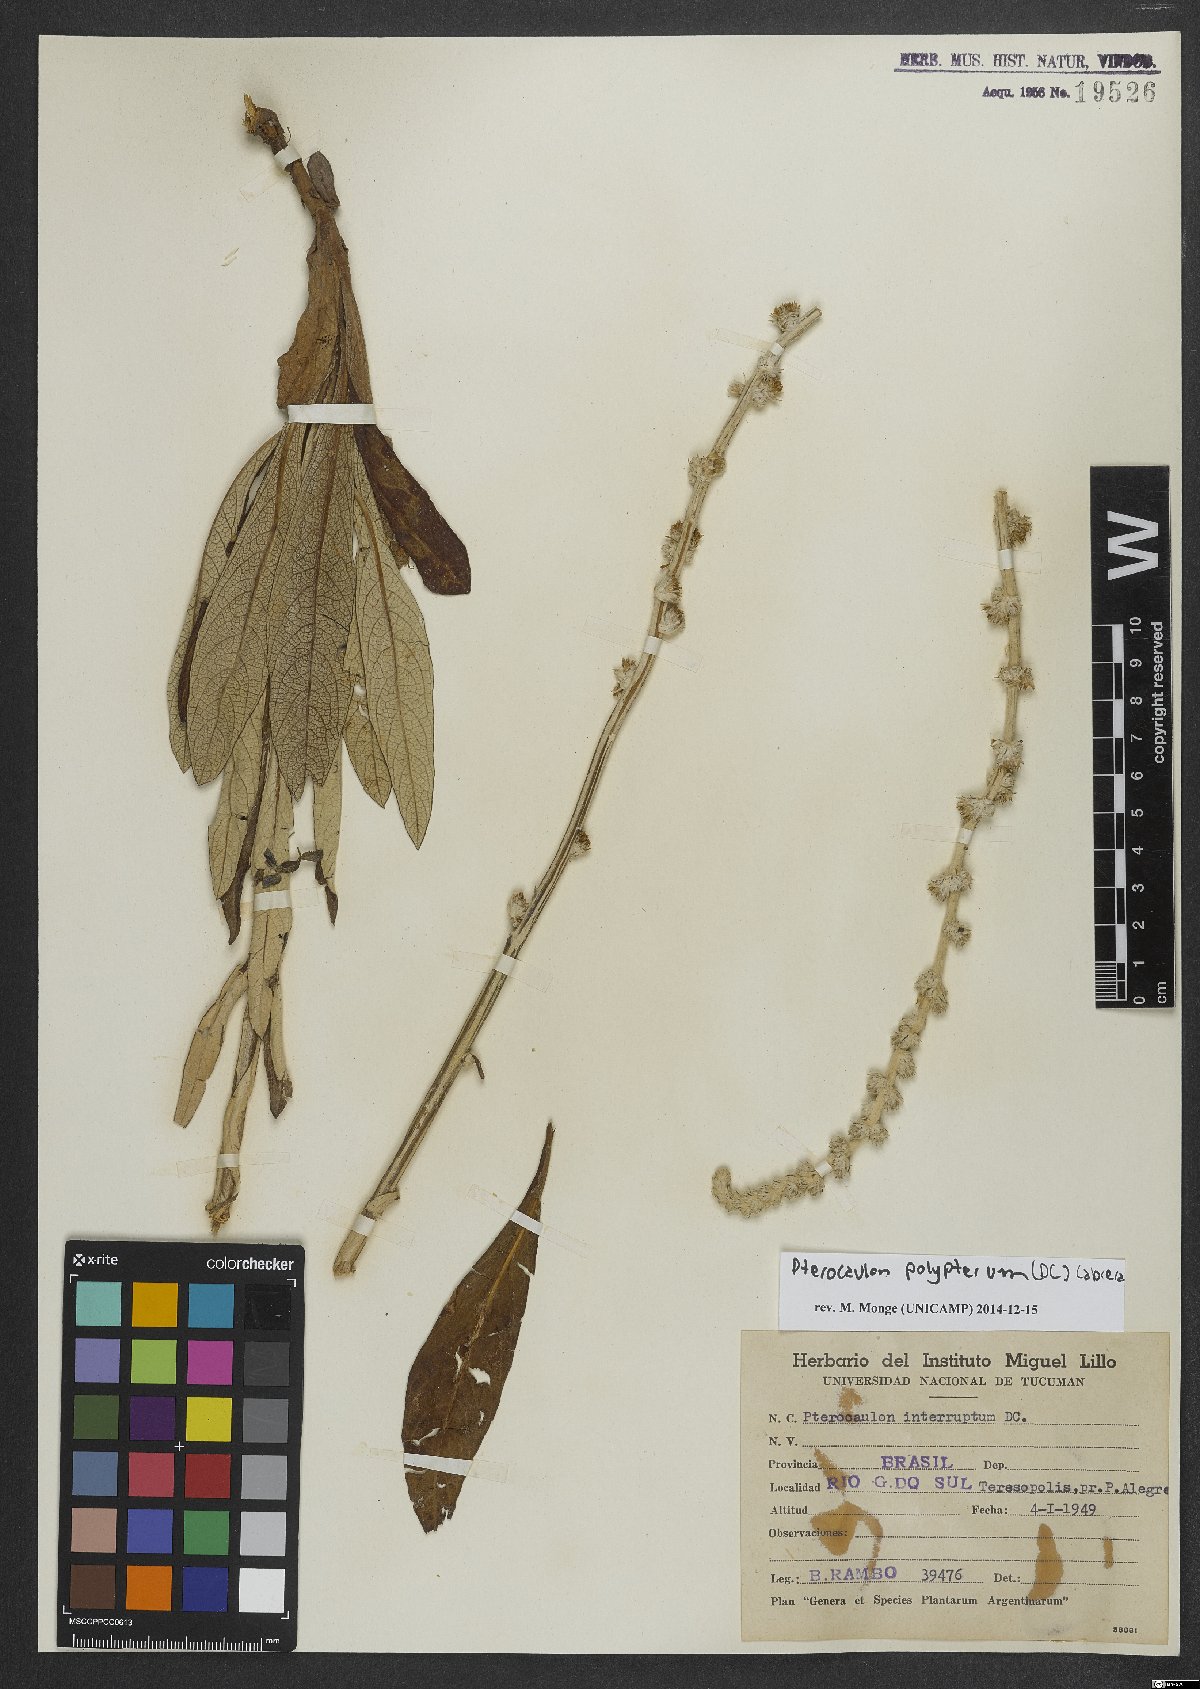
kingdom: Plantae
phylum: Tracheophyta
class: Magnoliopsida
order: Asterales
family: Asteraceae
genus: Pterocaulon
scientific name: Pterocaulon polypterum
